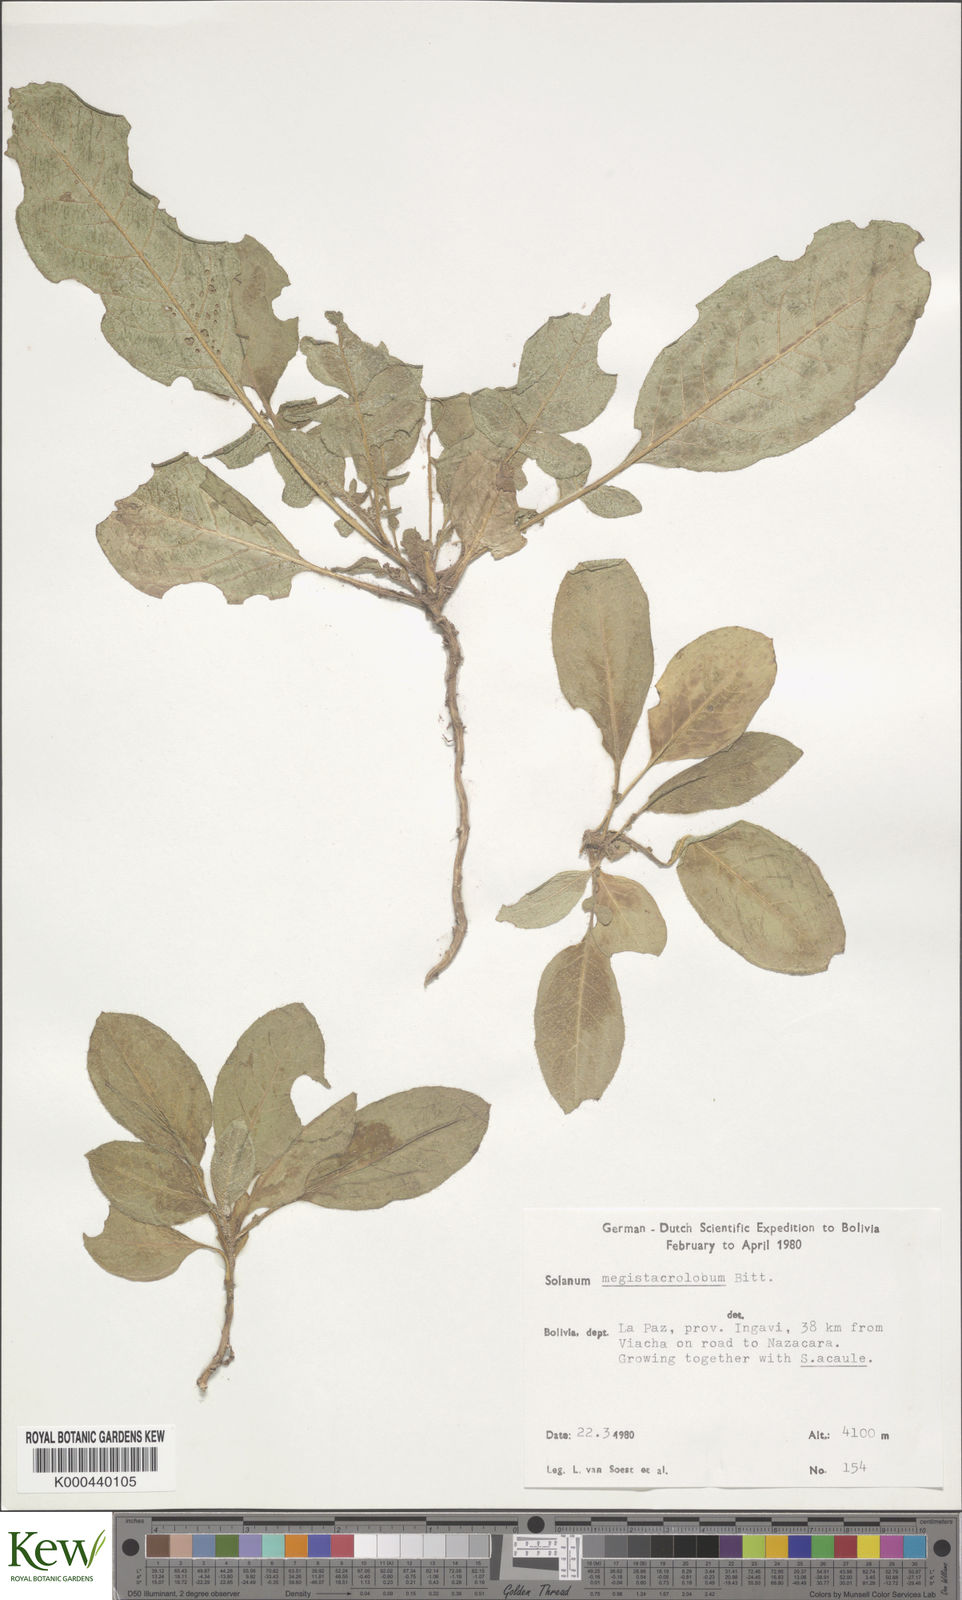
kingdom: Plantae
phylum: Tracheophyta
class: Magnoliopsida
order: Solanales
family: Solanaceae
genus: Solanum
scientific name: Solanum boliviense
